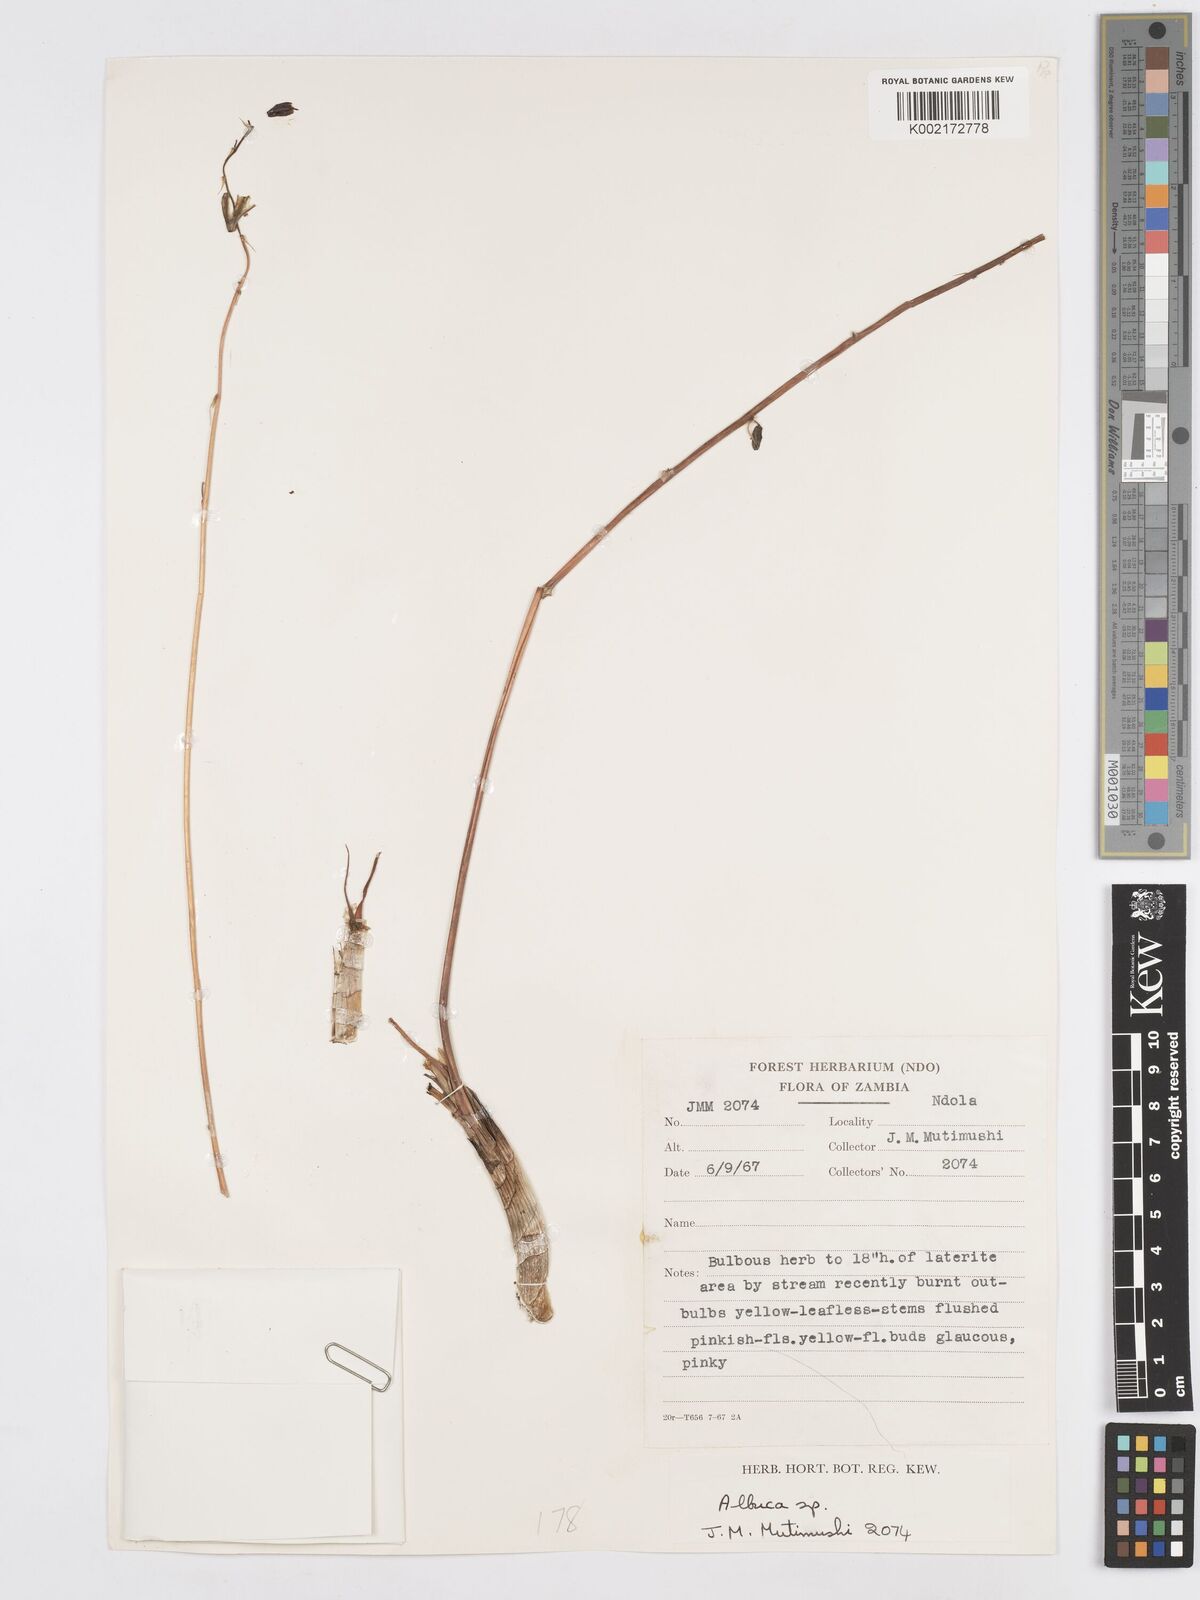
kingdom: Plantae
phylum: Tracheophyta
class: Liliopsida
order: Asparagales
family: Asparagaceae
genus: Albuca
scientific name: Albuca
